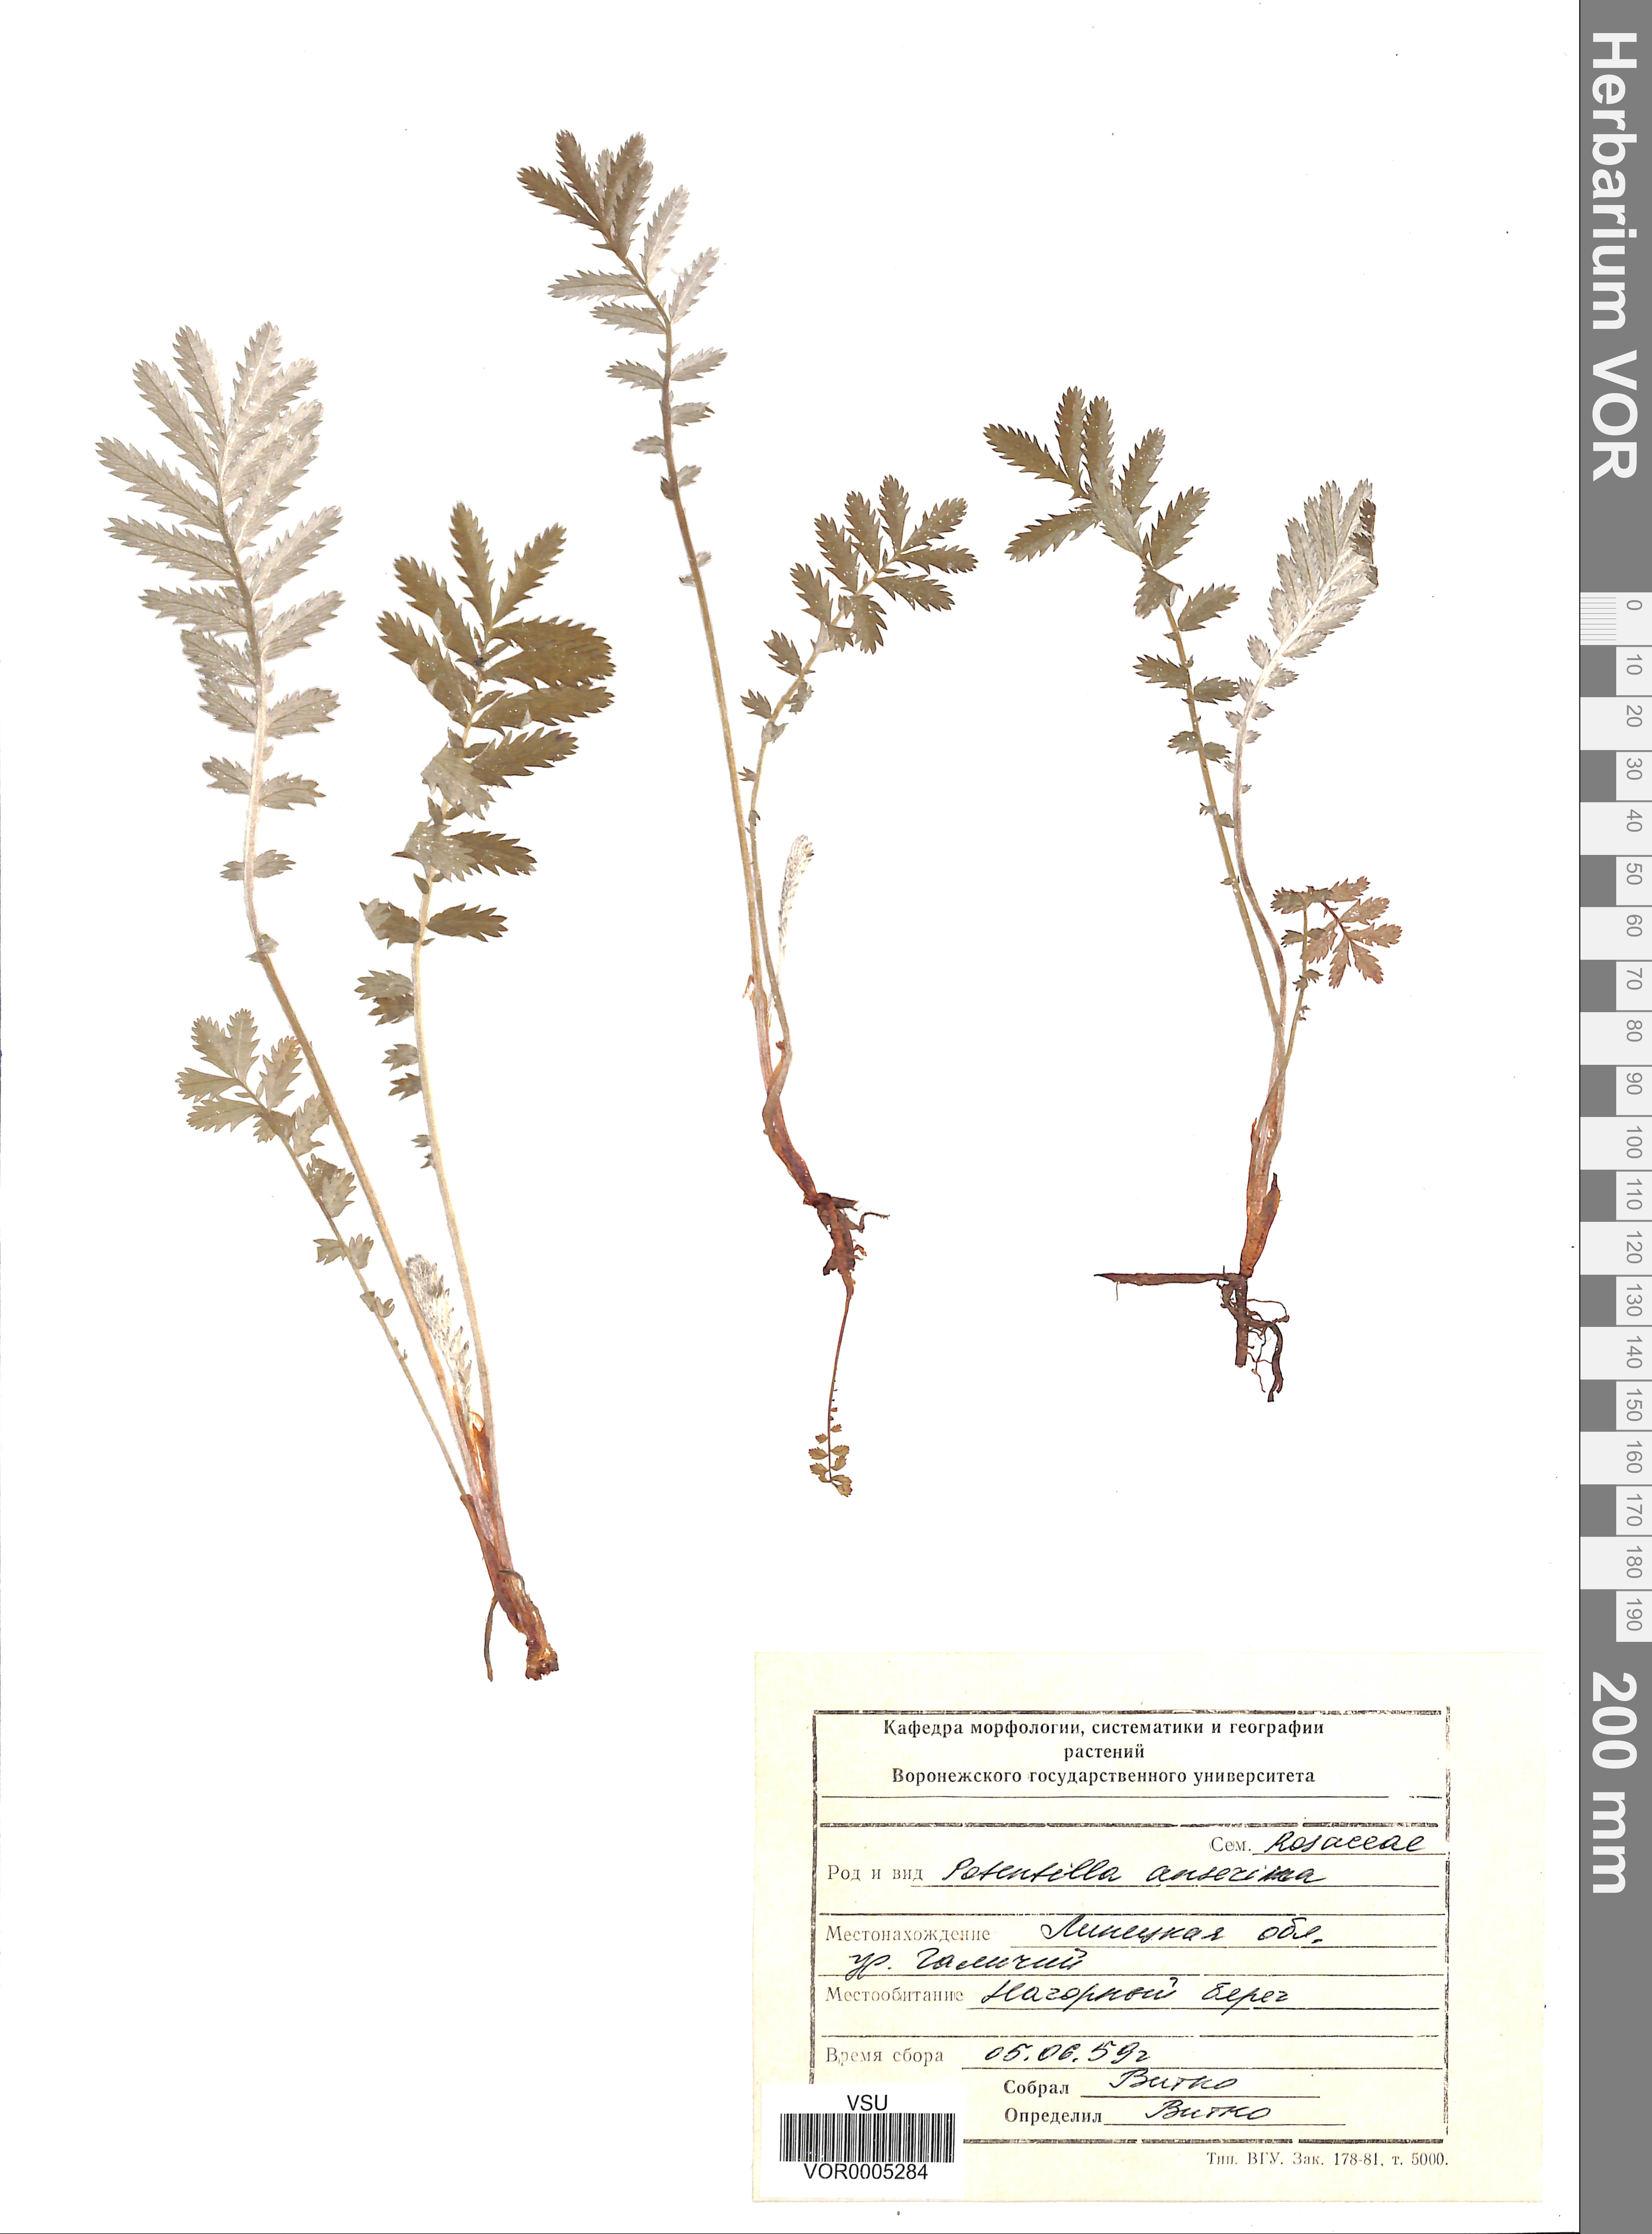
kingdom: Plantae
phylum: Tracheophyta
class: Magnoliopsida
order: Rosales
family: Rosaceae
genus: Argentina
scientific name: Argentina anserina
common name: Common silverweed
